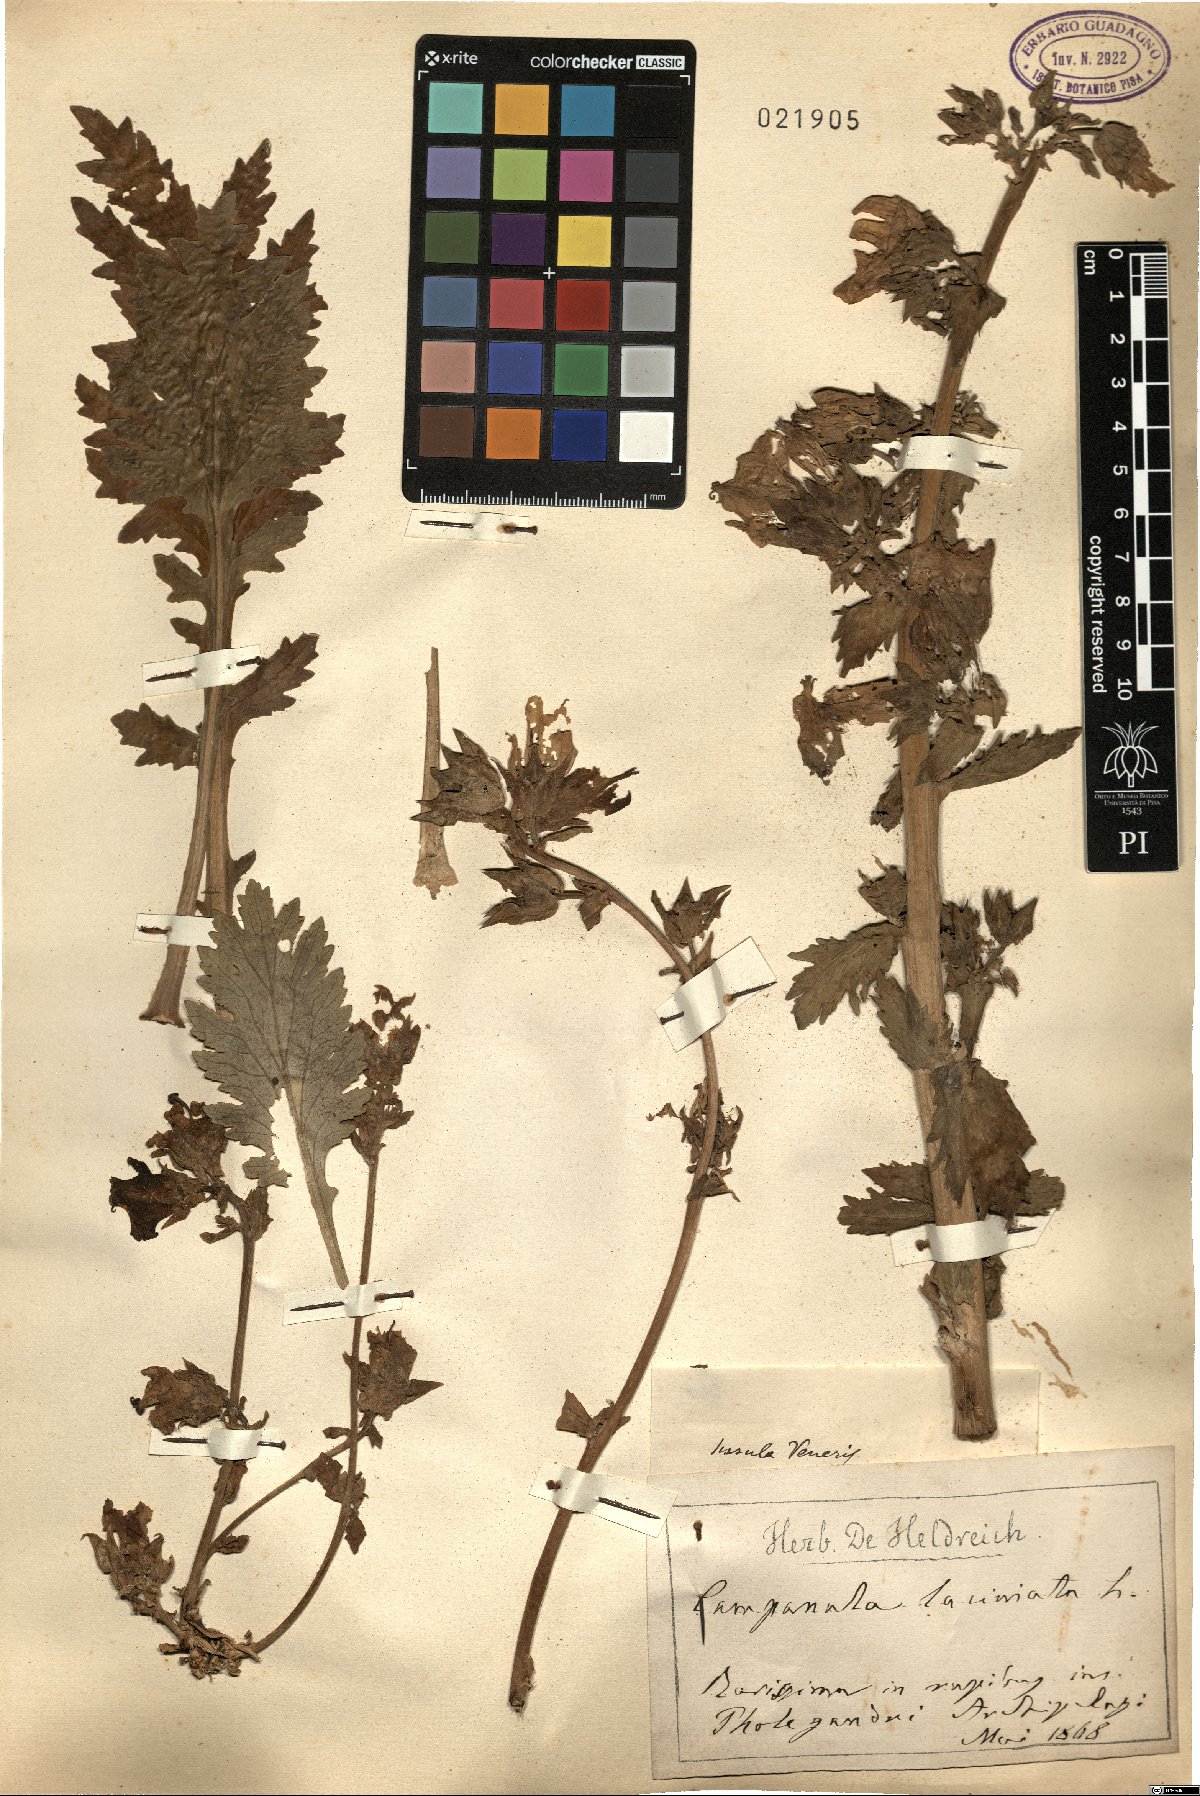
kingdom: Plantae
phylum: Tracheophyta
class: Magnoliopsida
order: Asterales
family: Campanulaceae
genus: Campanula
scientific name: Campanula laciniata
